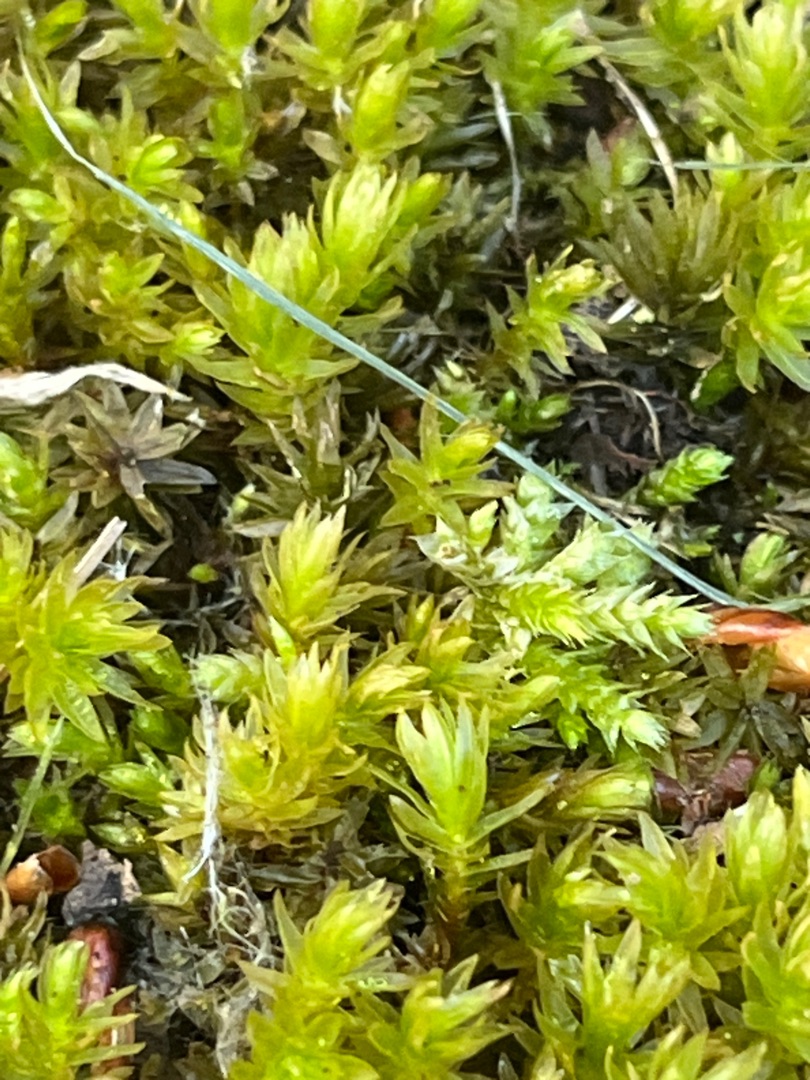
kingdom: Plantae
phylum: Bryophyta
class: Bryopsida
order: Bryales
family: Mniaceae
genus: Mnium
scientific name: Mnium hornum
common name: Brunfiltet stjernemos
